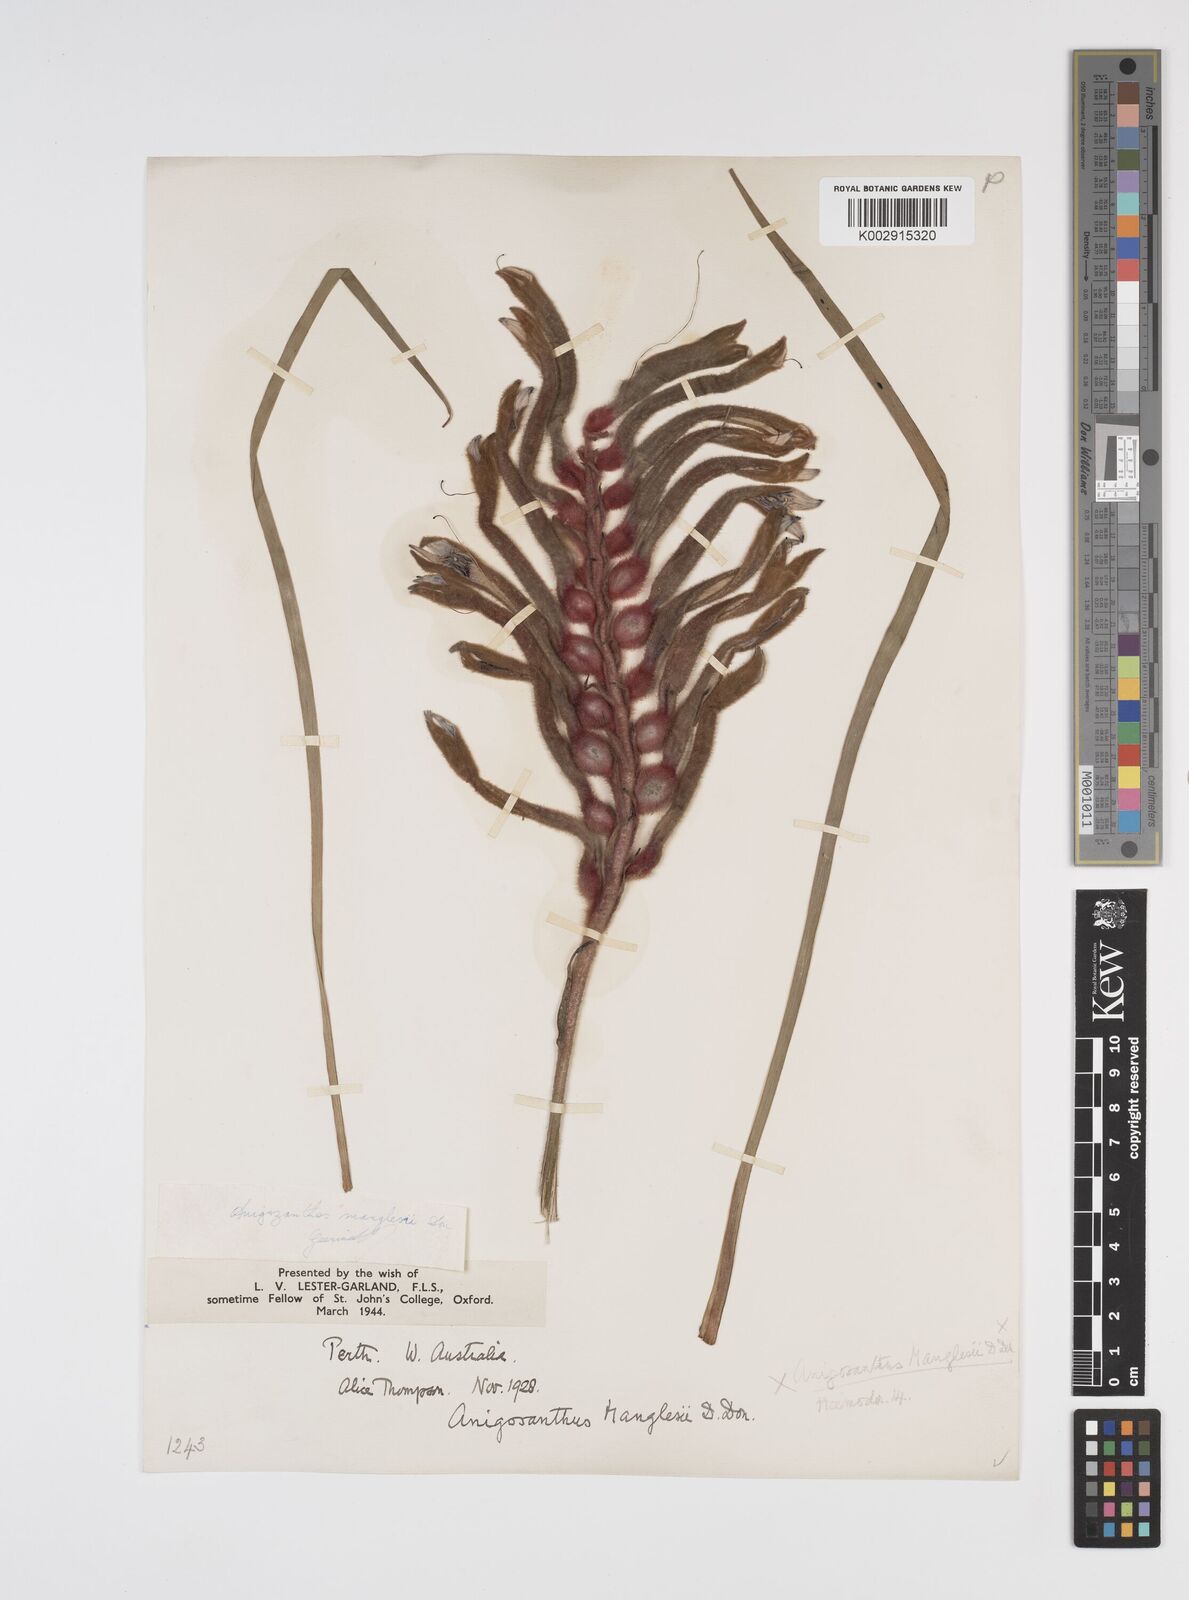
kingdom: Plantae
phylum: Tracheophyta
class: Liliopsida
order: Commelinales
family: Haemodoraceae
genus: Anigozanthos
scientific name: Anigozanthos manglesii
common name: Mangles's kangaroo-paw
